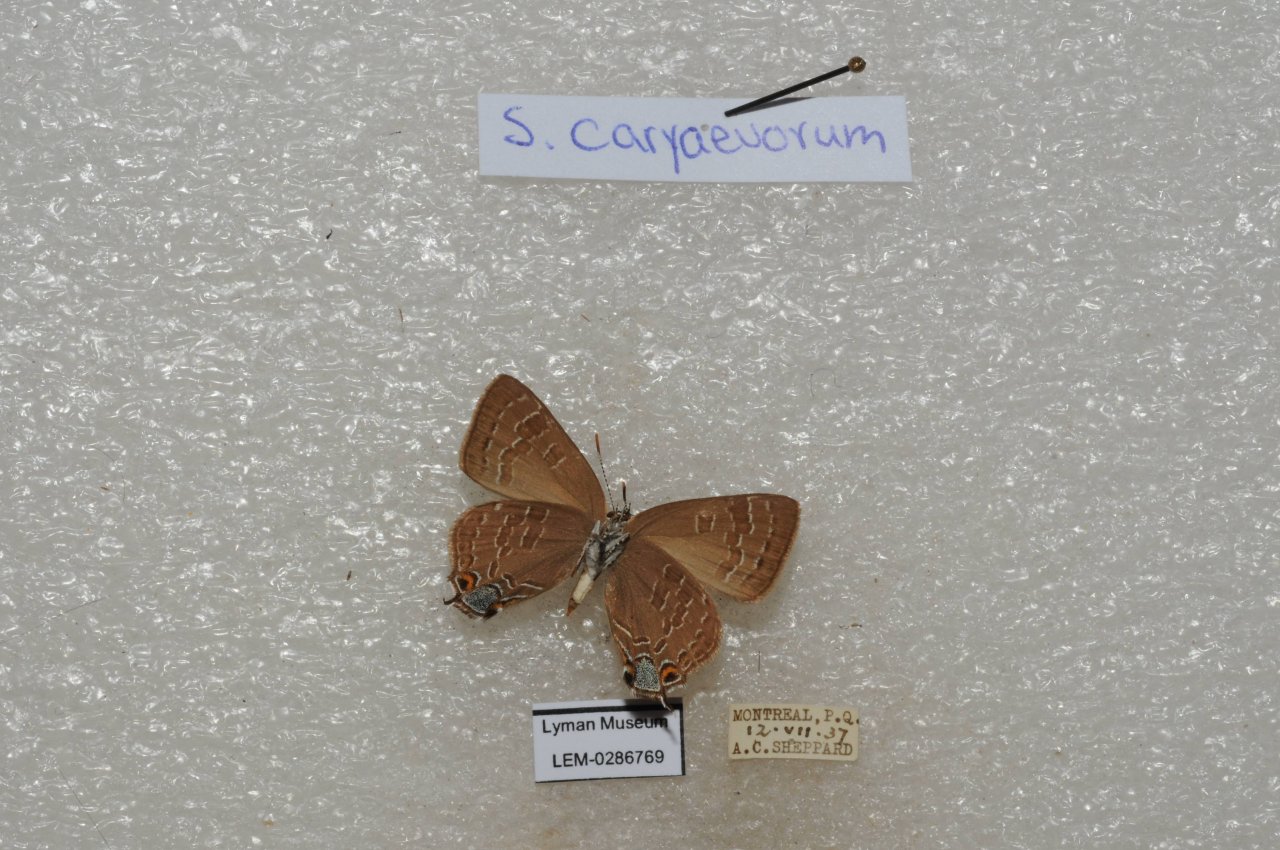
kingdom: Animalia
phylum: Arthropoda
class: Insecta
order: Lepidoptera
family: Lycaenidae
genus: Strymon
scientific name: Strymon caryaevorus
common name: Hickory Hairstreak
